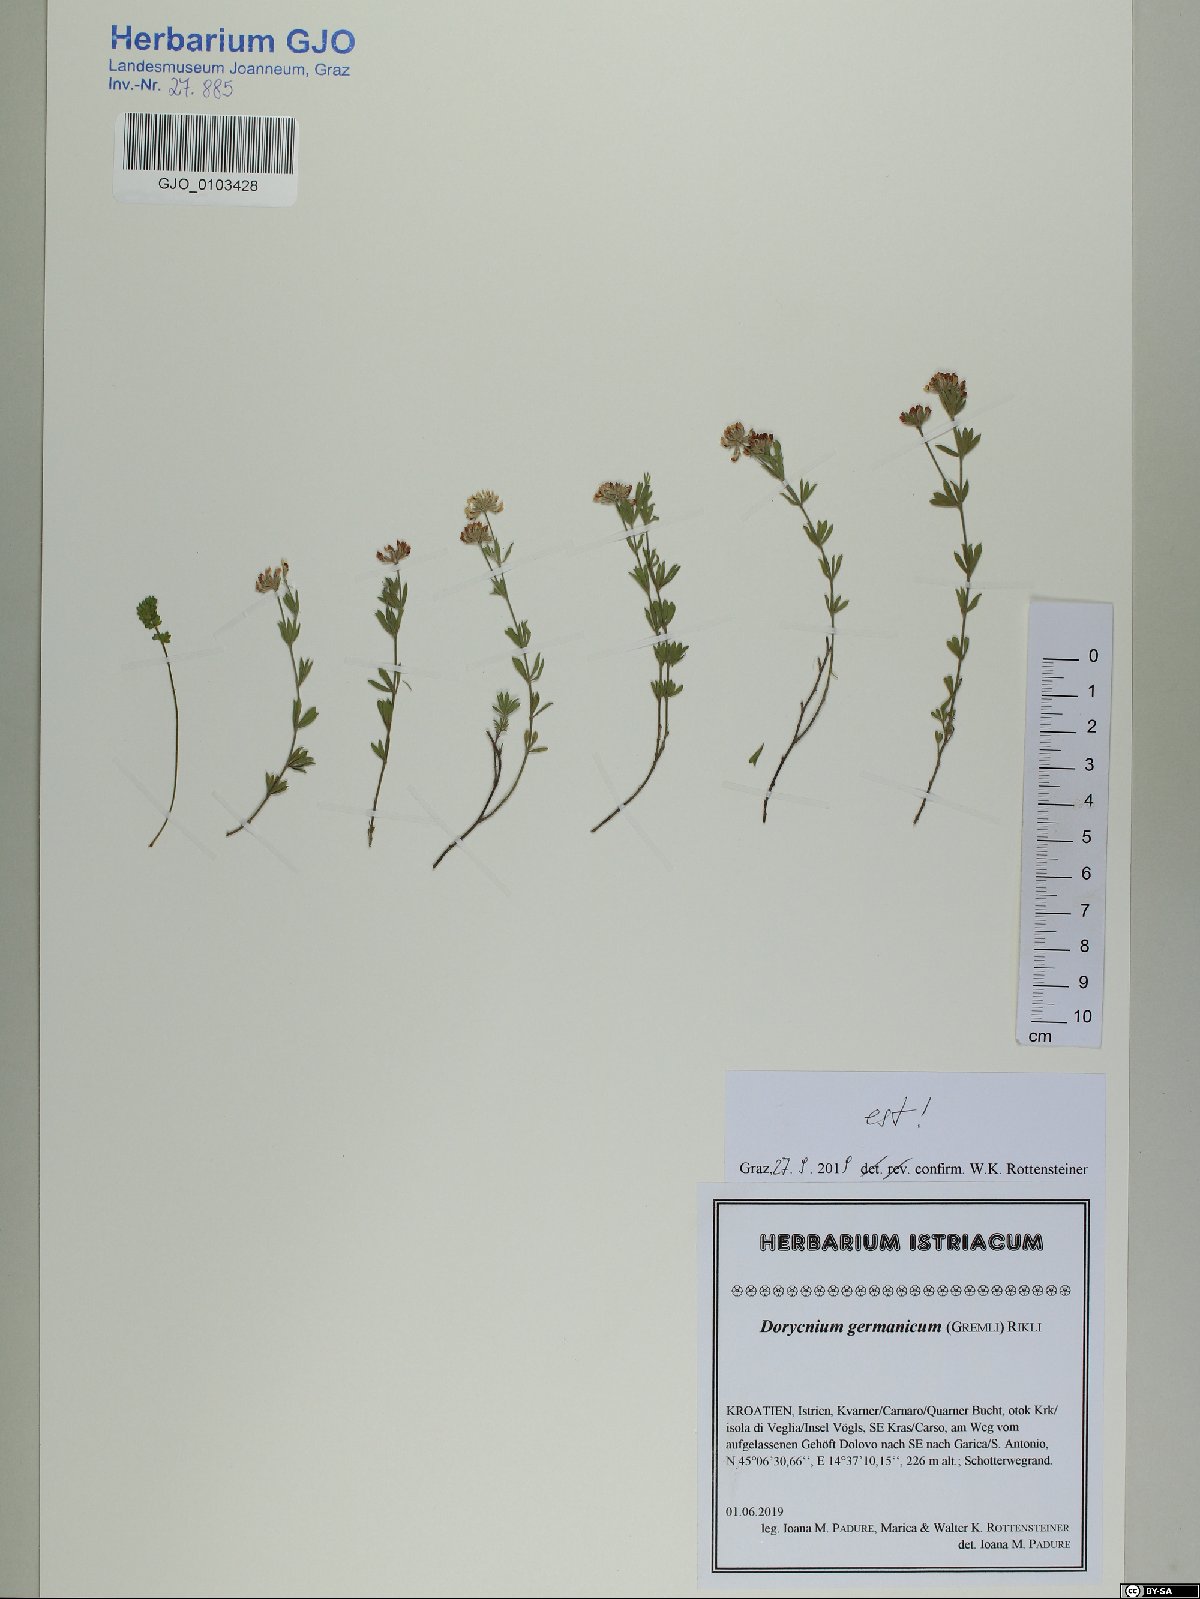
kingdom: Plantae
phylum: Tracheophyta
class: Magnoliopsida
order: Fabales
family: Fabaceae
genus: Lotus
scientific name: Lotus germanicus
